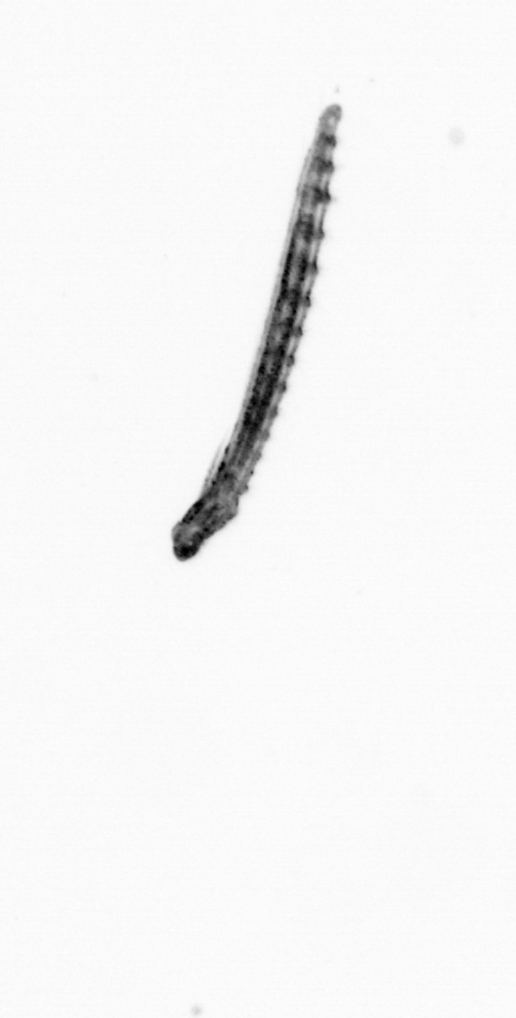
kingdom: Chromista
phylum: Ochrophyta
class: Bacillariophyceae
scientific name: Bacillariophyceae
